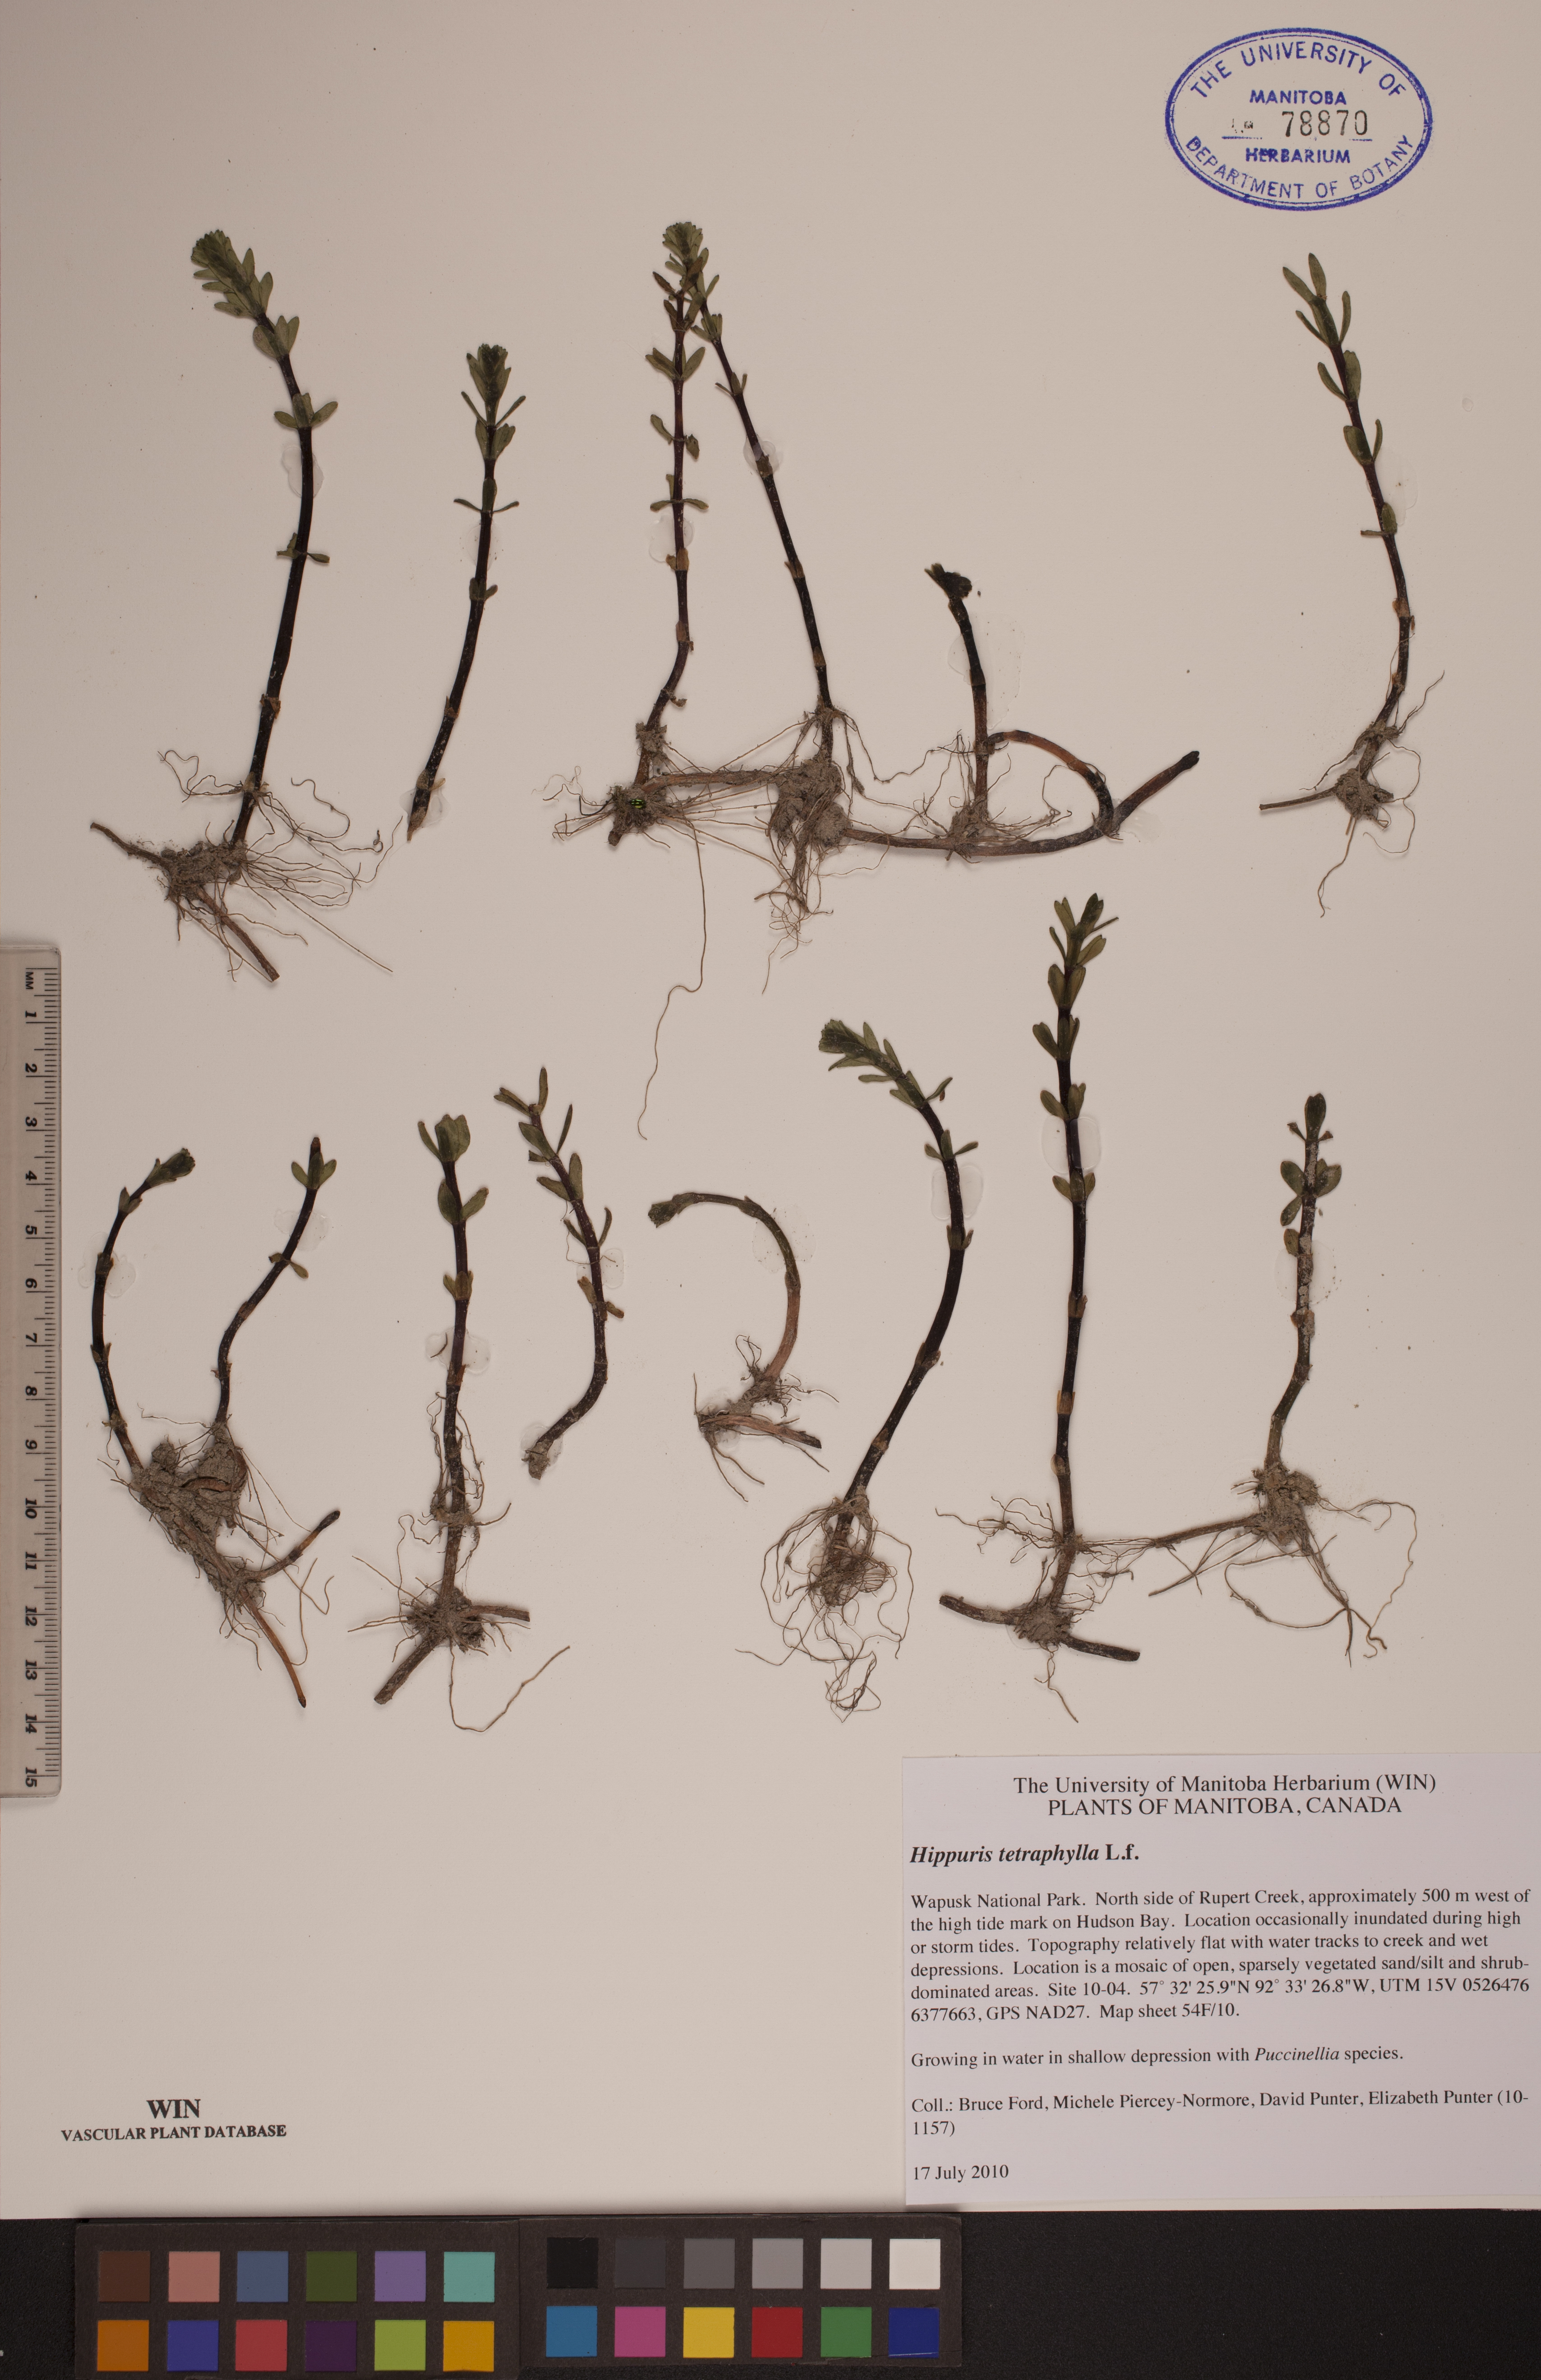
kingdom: Plantae
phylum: Tracheophyta
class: Magnoliopsida
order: Lamiales
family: Plantaginaceae
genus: Hippuris
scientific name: Hippuris tetraphylla
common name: Four-leaved mare's-tail
